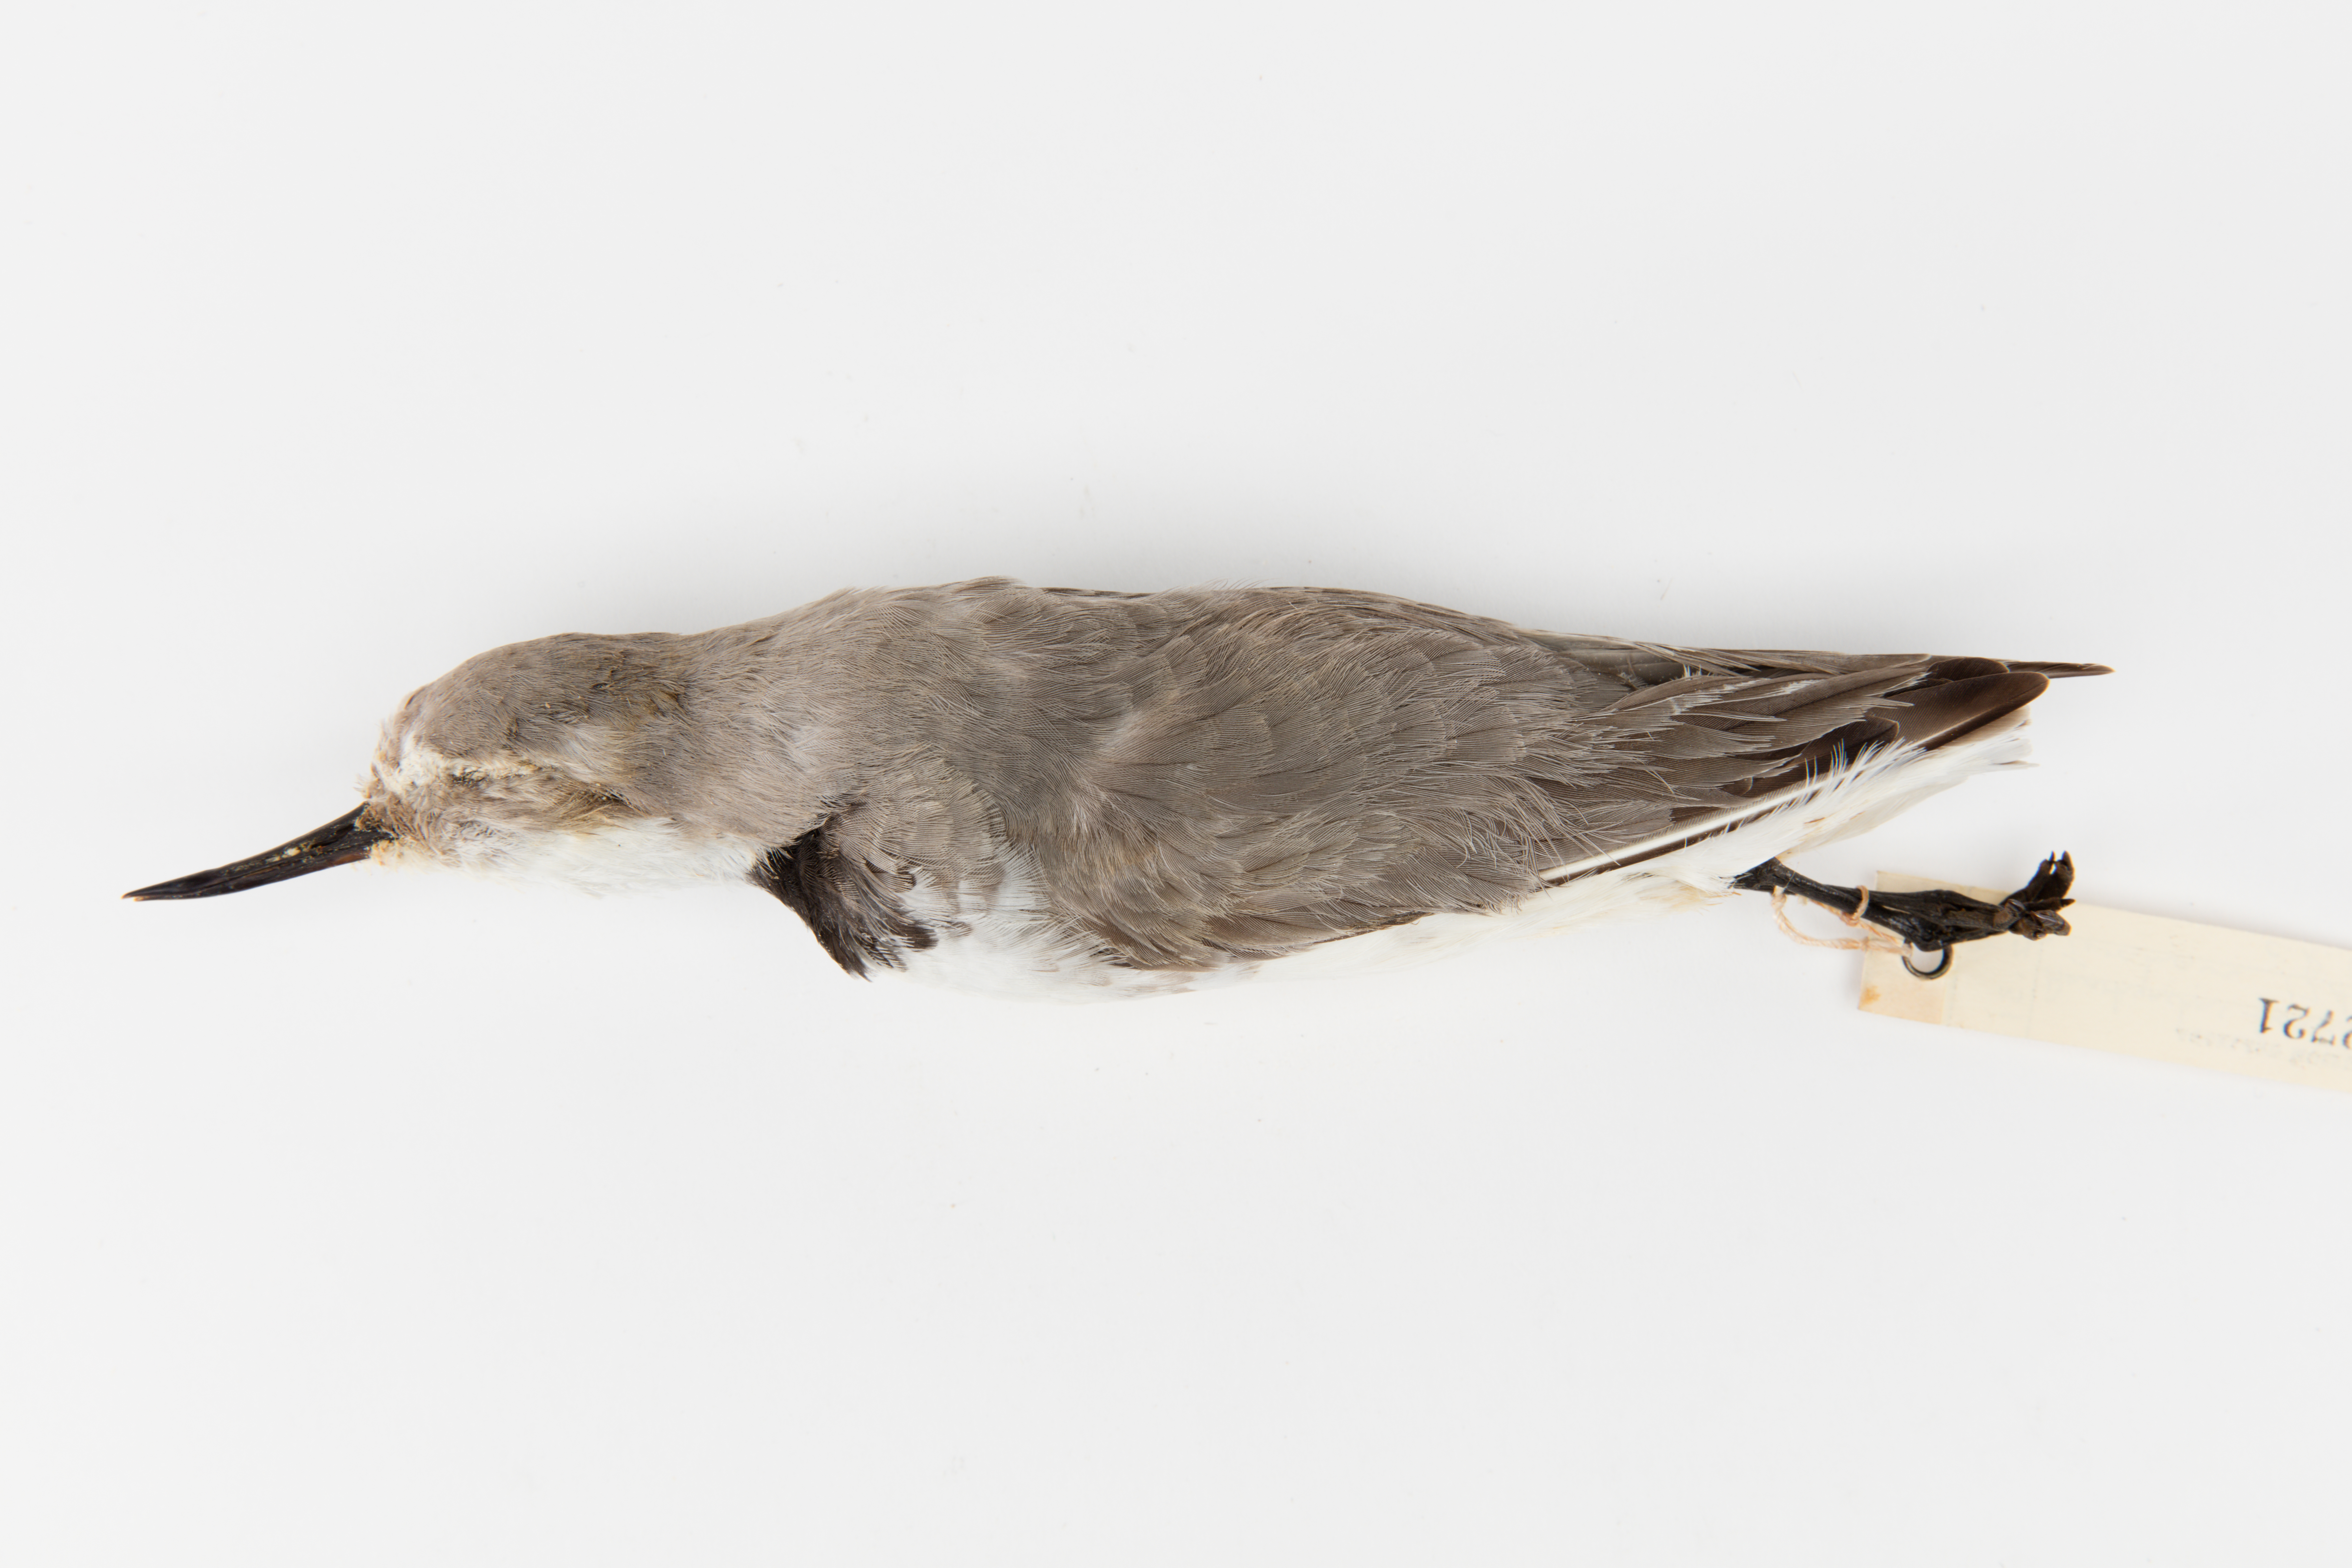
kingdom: Animalia
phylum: Chordata
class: Aves
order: Charadriiformes
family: Charadriidae
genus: Charadrius
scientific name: Charadrius frontalis
